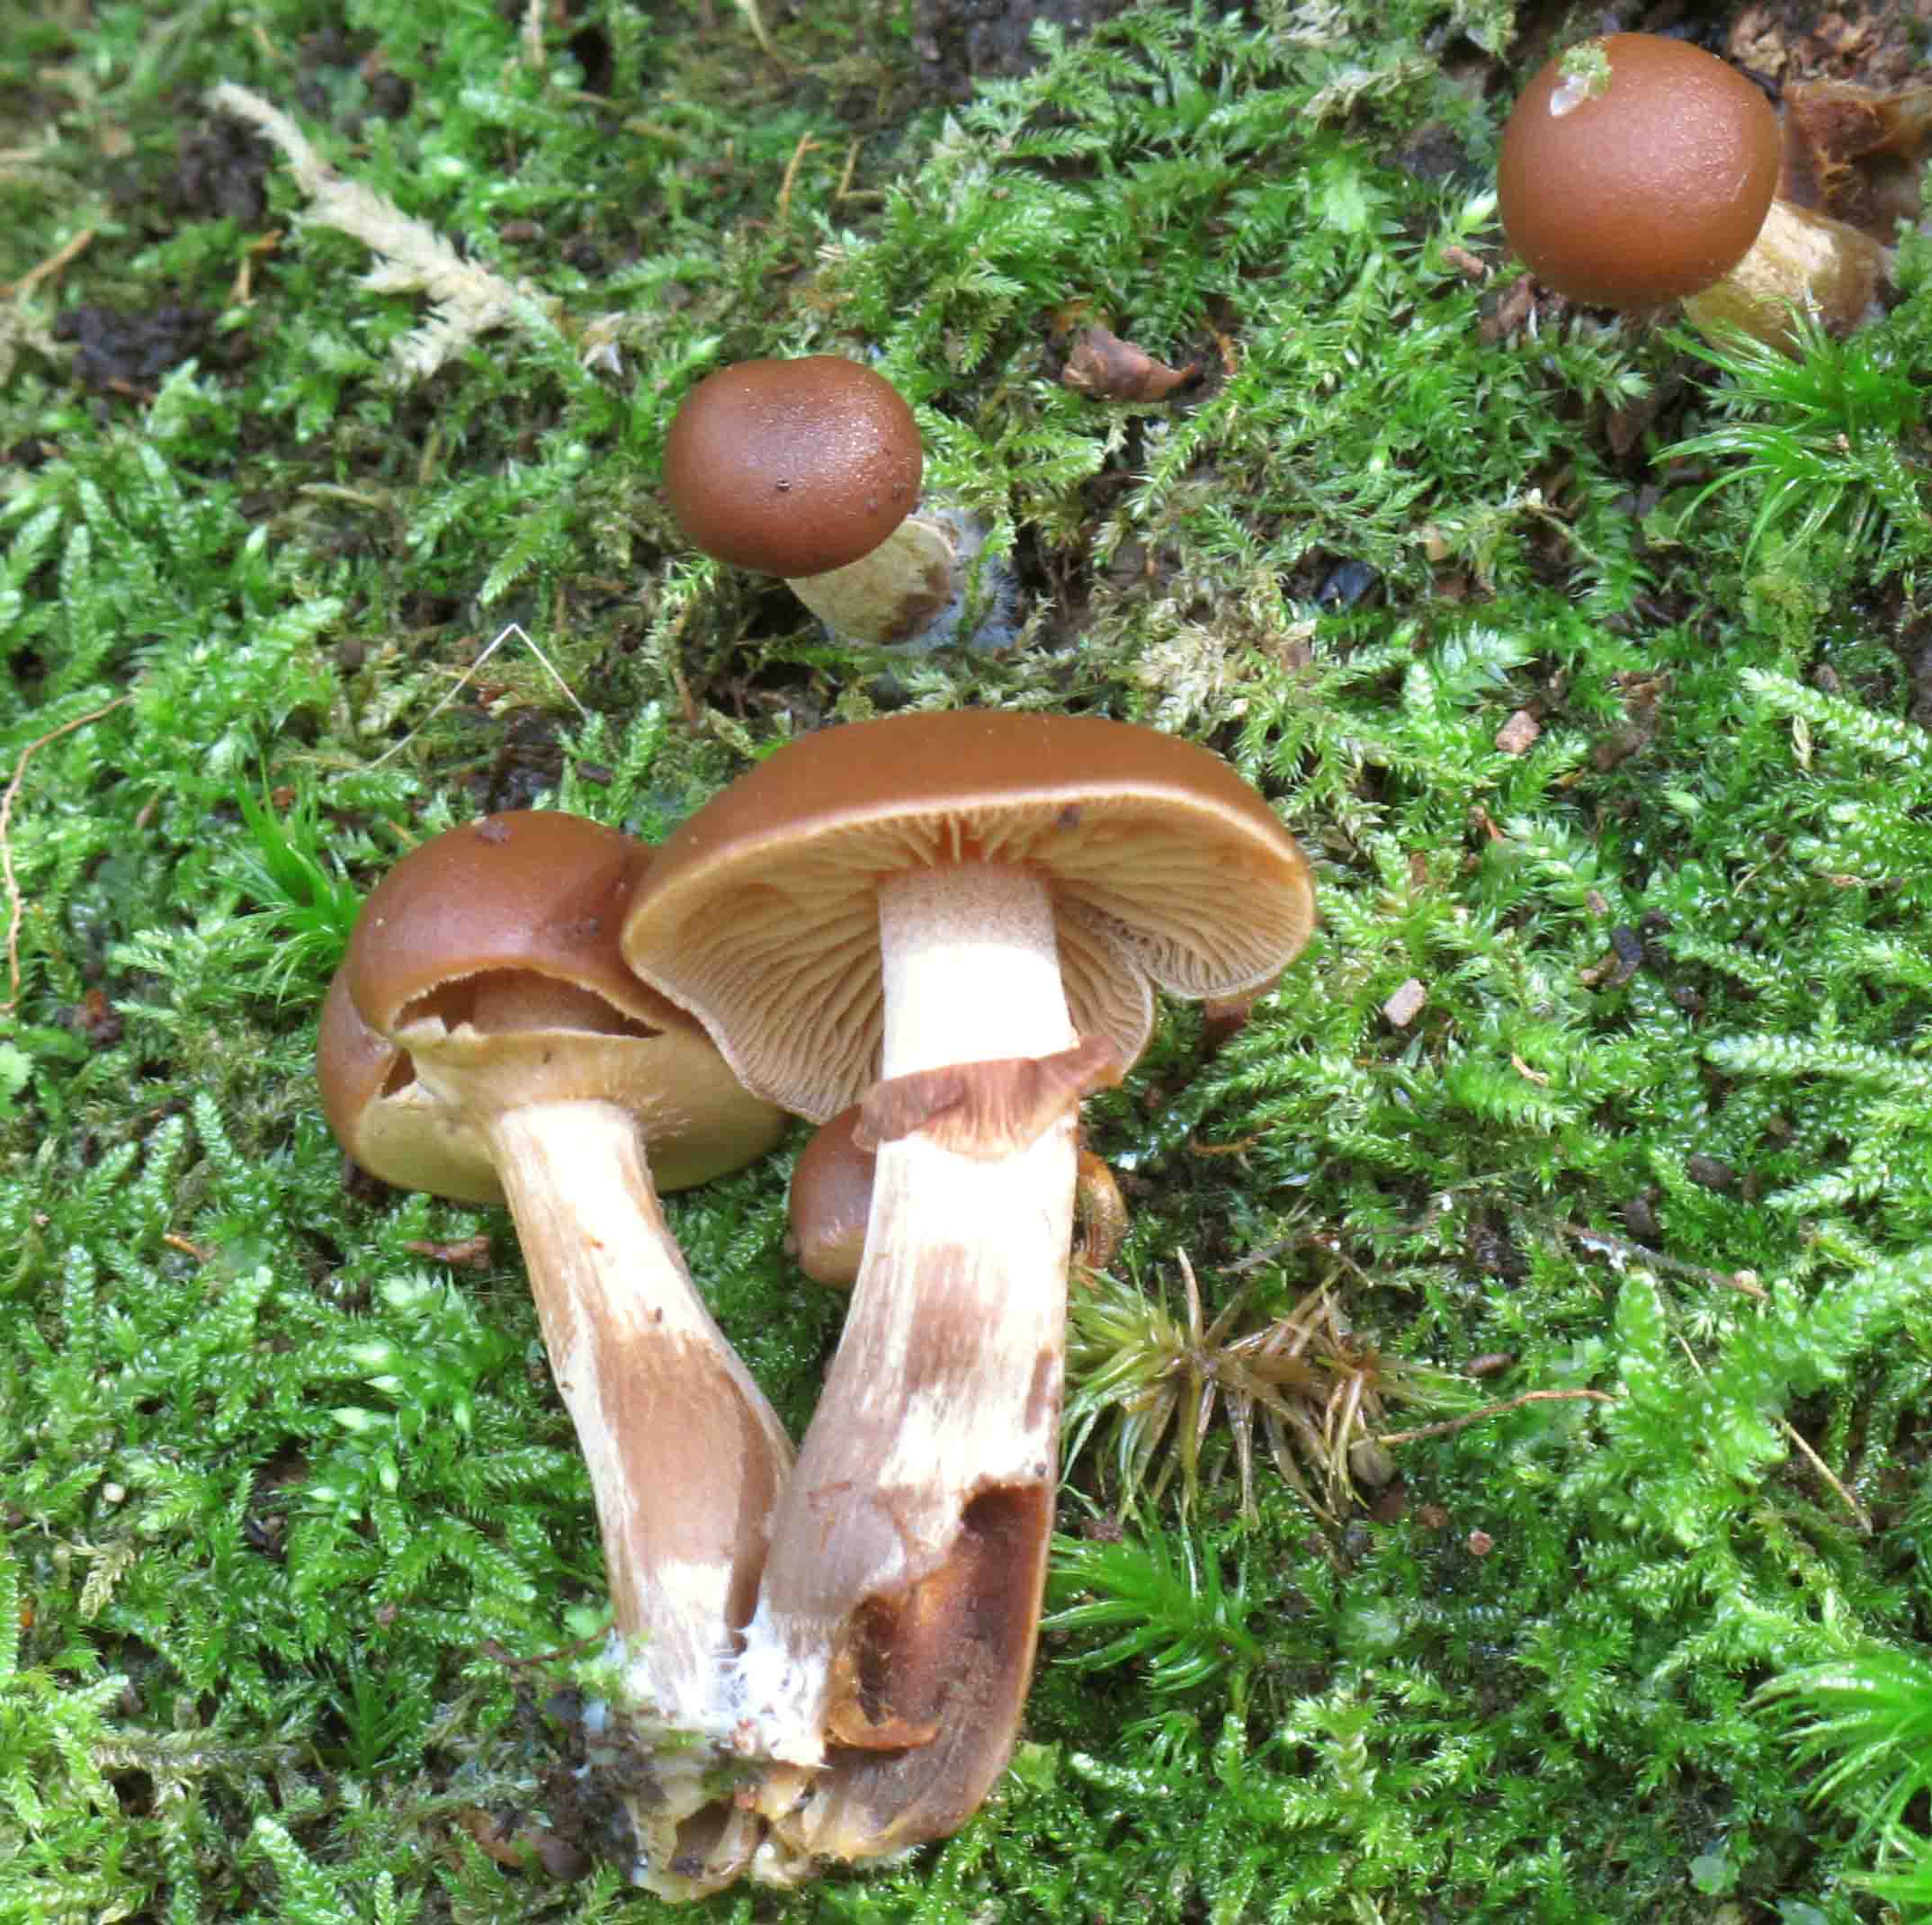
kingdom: Fungi
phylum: Basidiomycota
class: Agaricomycetes
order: Agaricales
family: Hymenogastraceae
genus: Galerina
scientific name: Galerina marginata
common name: randbæltet hjelmhat
